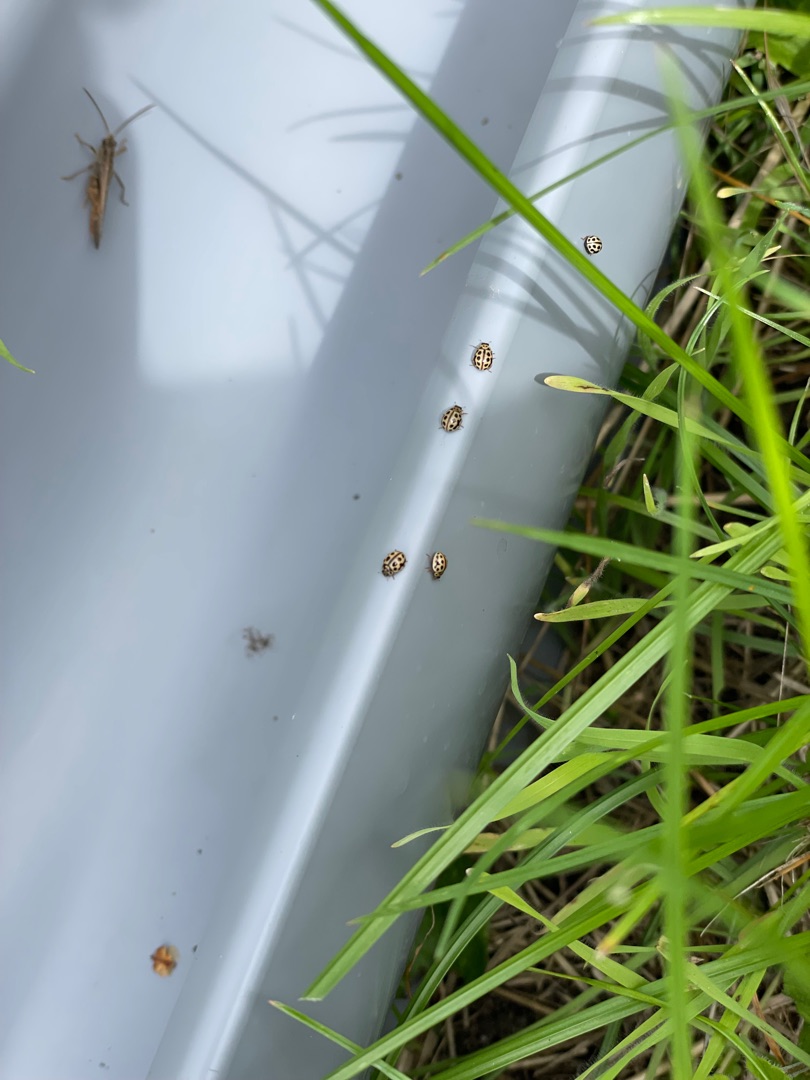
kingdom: Animalia
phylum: Arthropoda
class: Insecta
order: Coleoptera
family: Coccinellidae
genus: Tytthaspis
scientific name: Tytthaspis sedecimpunctata
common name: Sekstenprikket mariehøne
